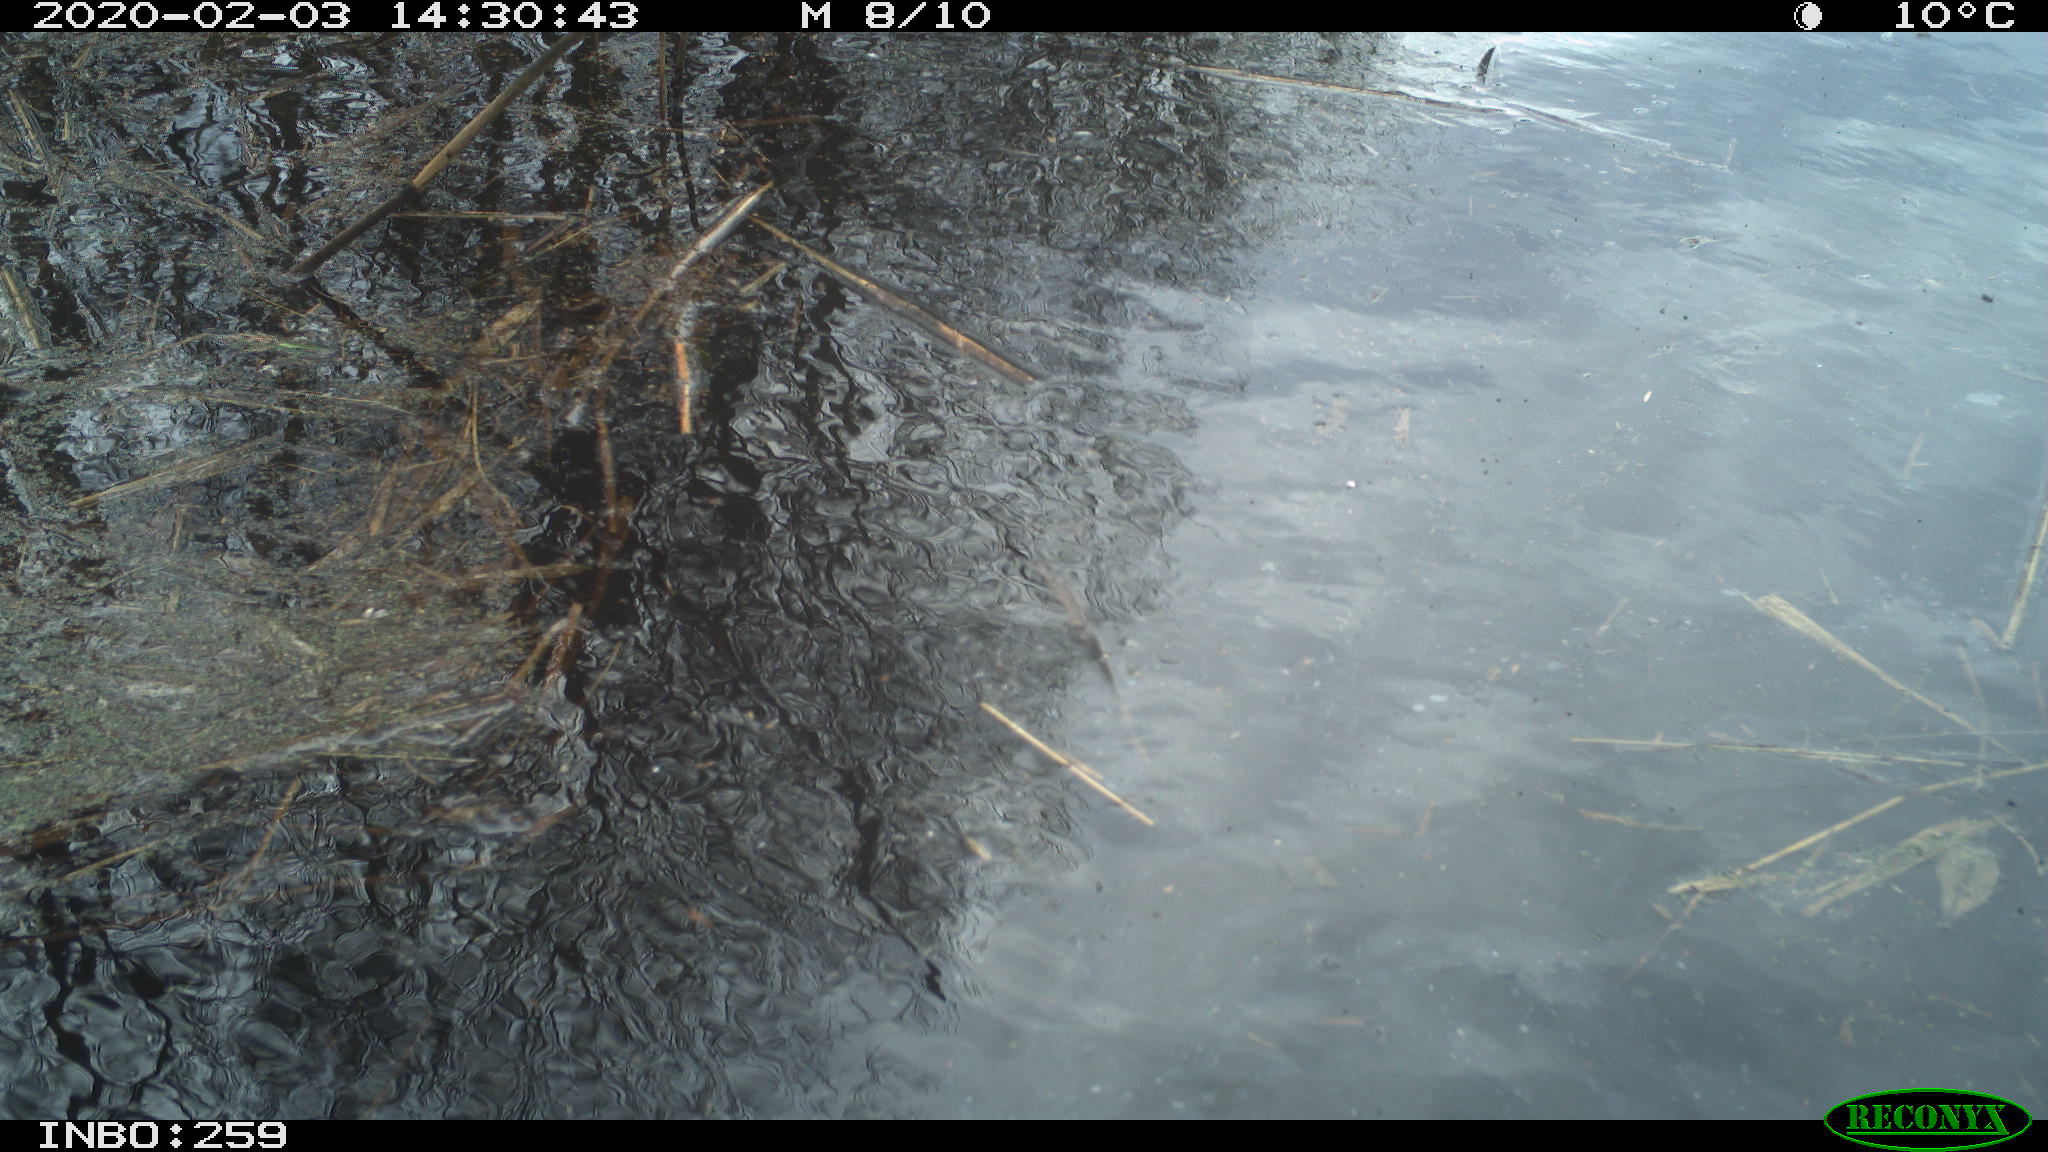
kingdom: Animalia
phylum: Chordata
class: Aves
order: Gruiformes
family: Rallidae
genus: Gallinula
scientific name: Gallinula chloropus
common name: Common moorhen
